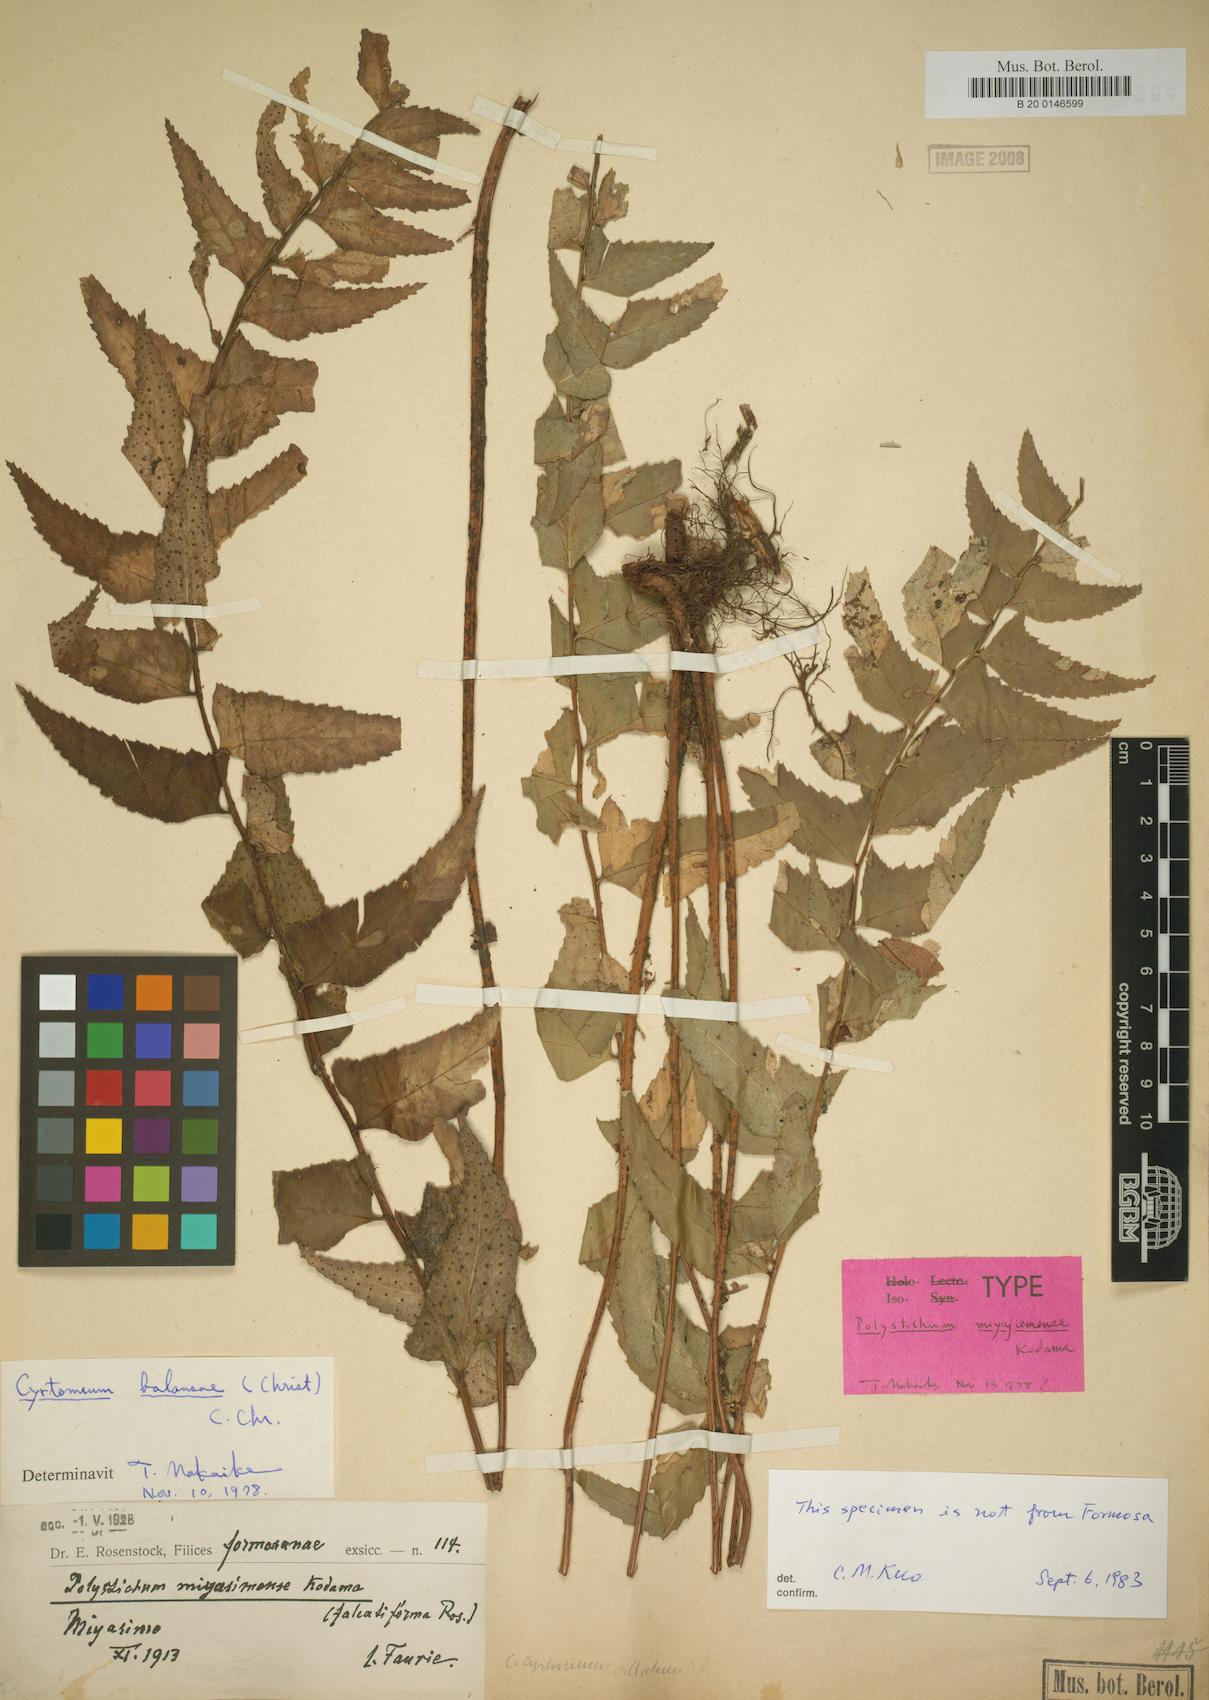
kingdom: Plantae
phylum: Tracheophyta
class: Polypodiopsida
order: Polypodiales
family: Dryopteridaceae
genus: Polystichum
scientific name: Polystichum balansae
